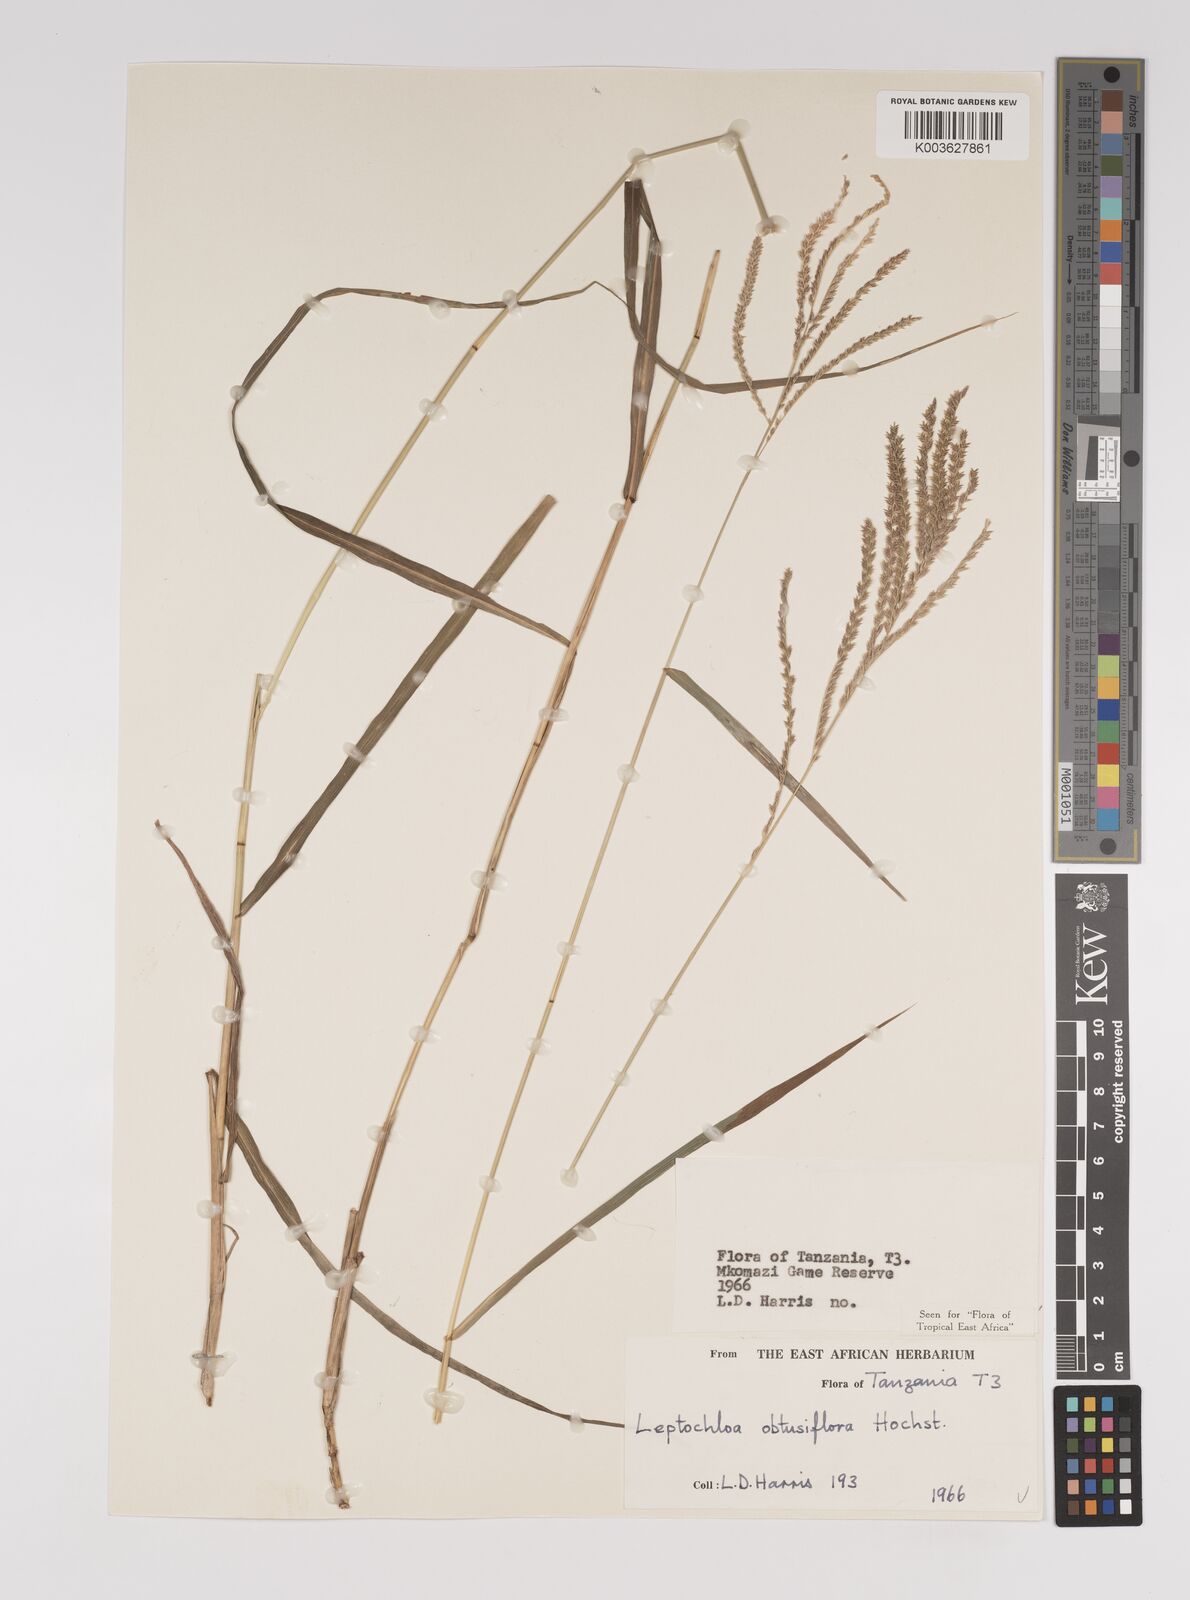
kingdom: Plantae
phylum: Tracheophyta
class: Liliopsida
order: Poales
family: Poaceae
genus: Disakisperma
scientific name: Disakisperma obtusiflorum
